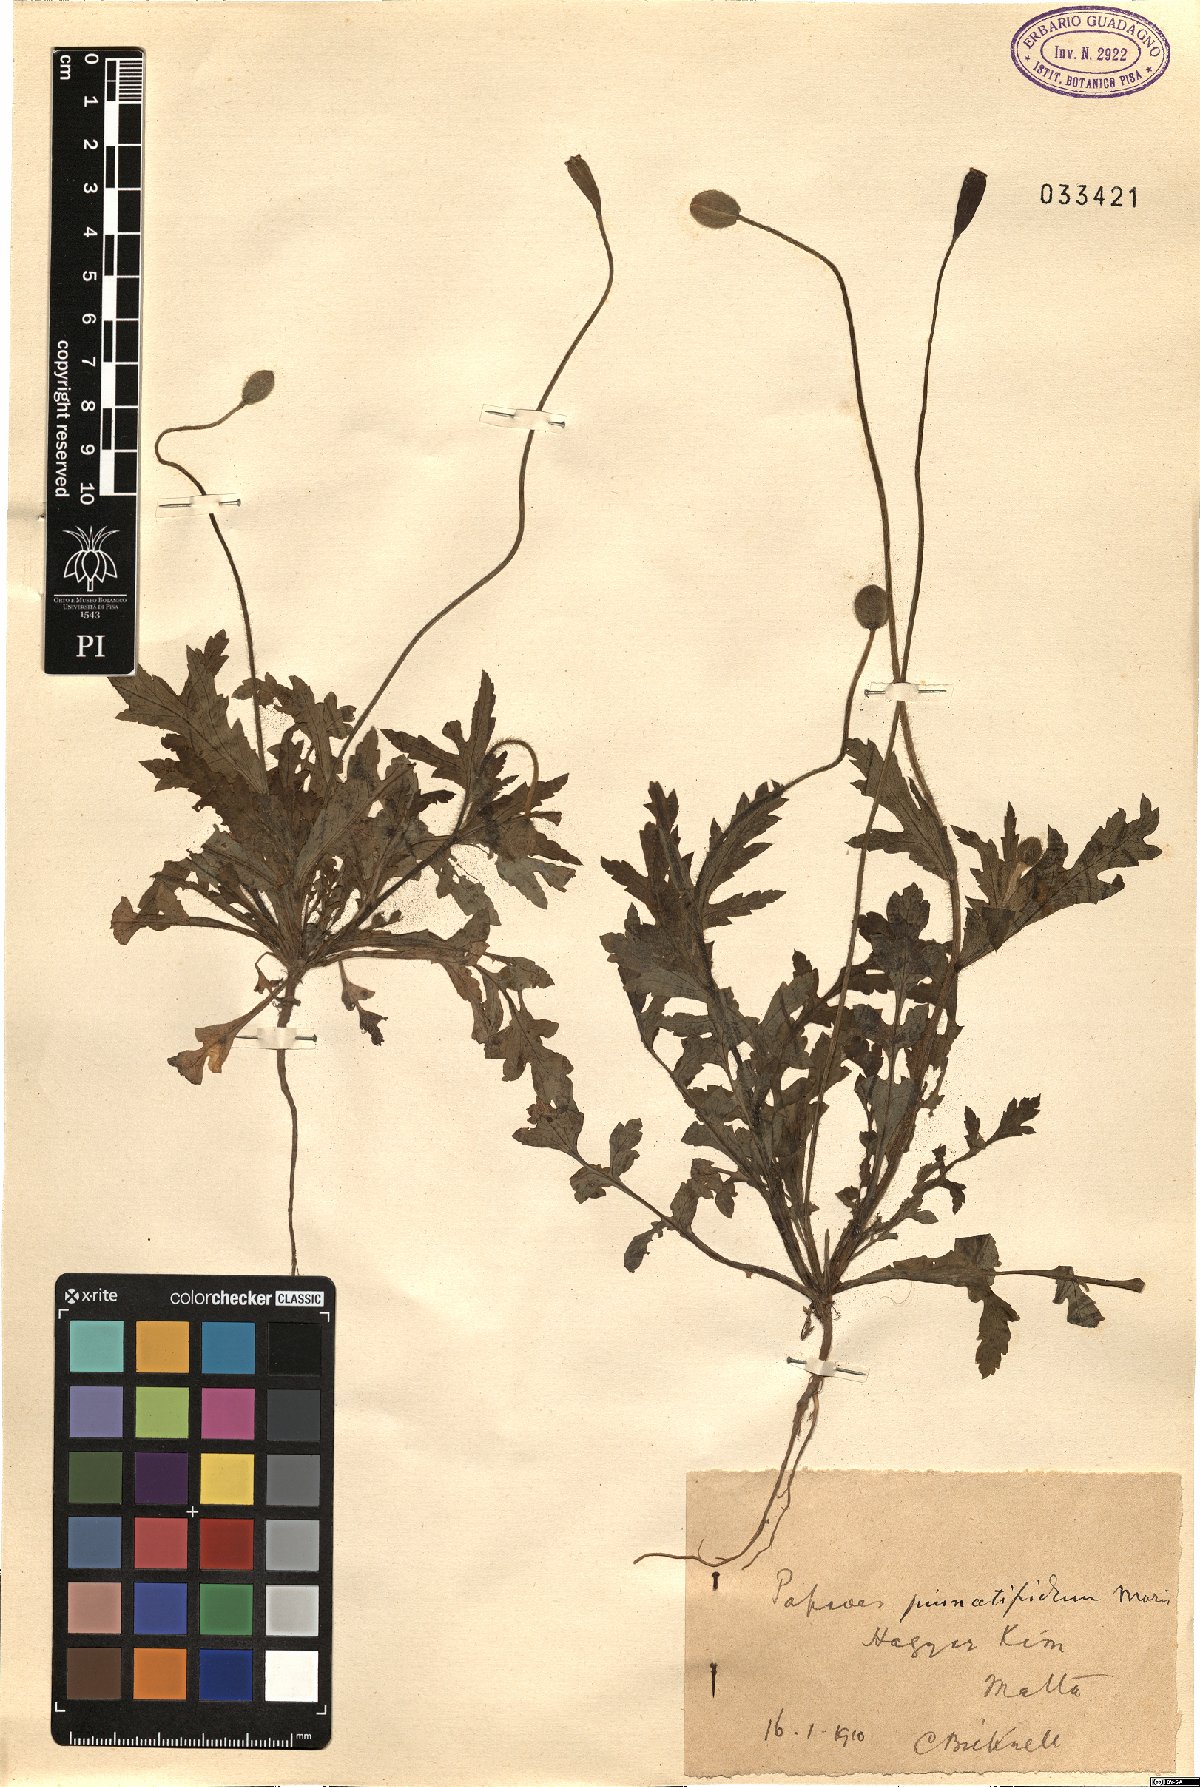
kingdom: Plantae
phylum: Tracheophyta
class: Magnoliopsida
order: Ranunculales
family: Papaveraceae
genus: Papaver
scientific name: Papaver pinnatifidum
